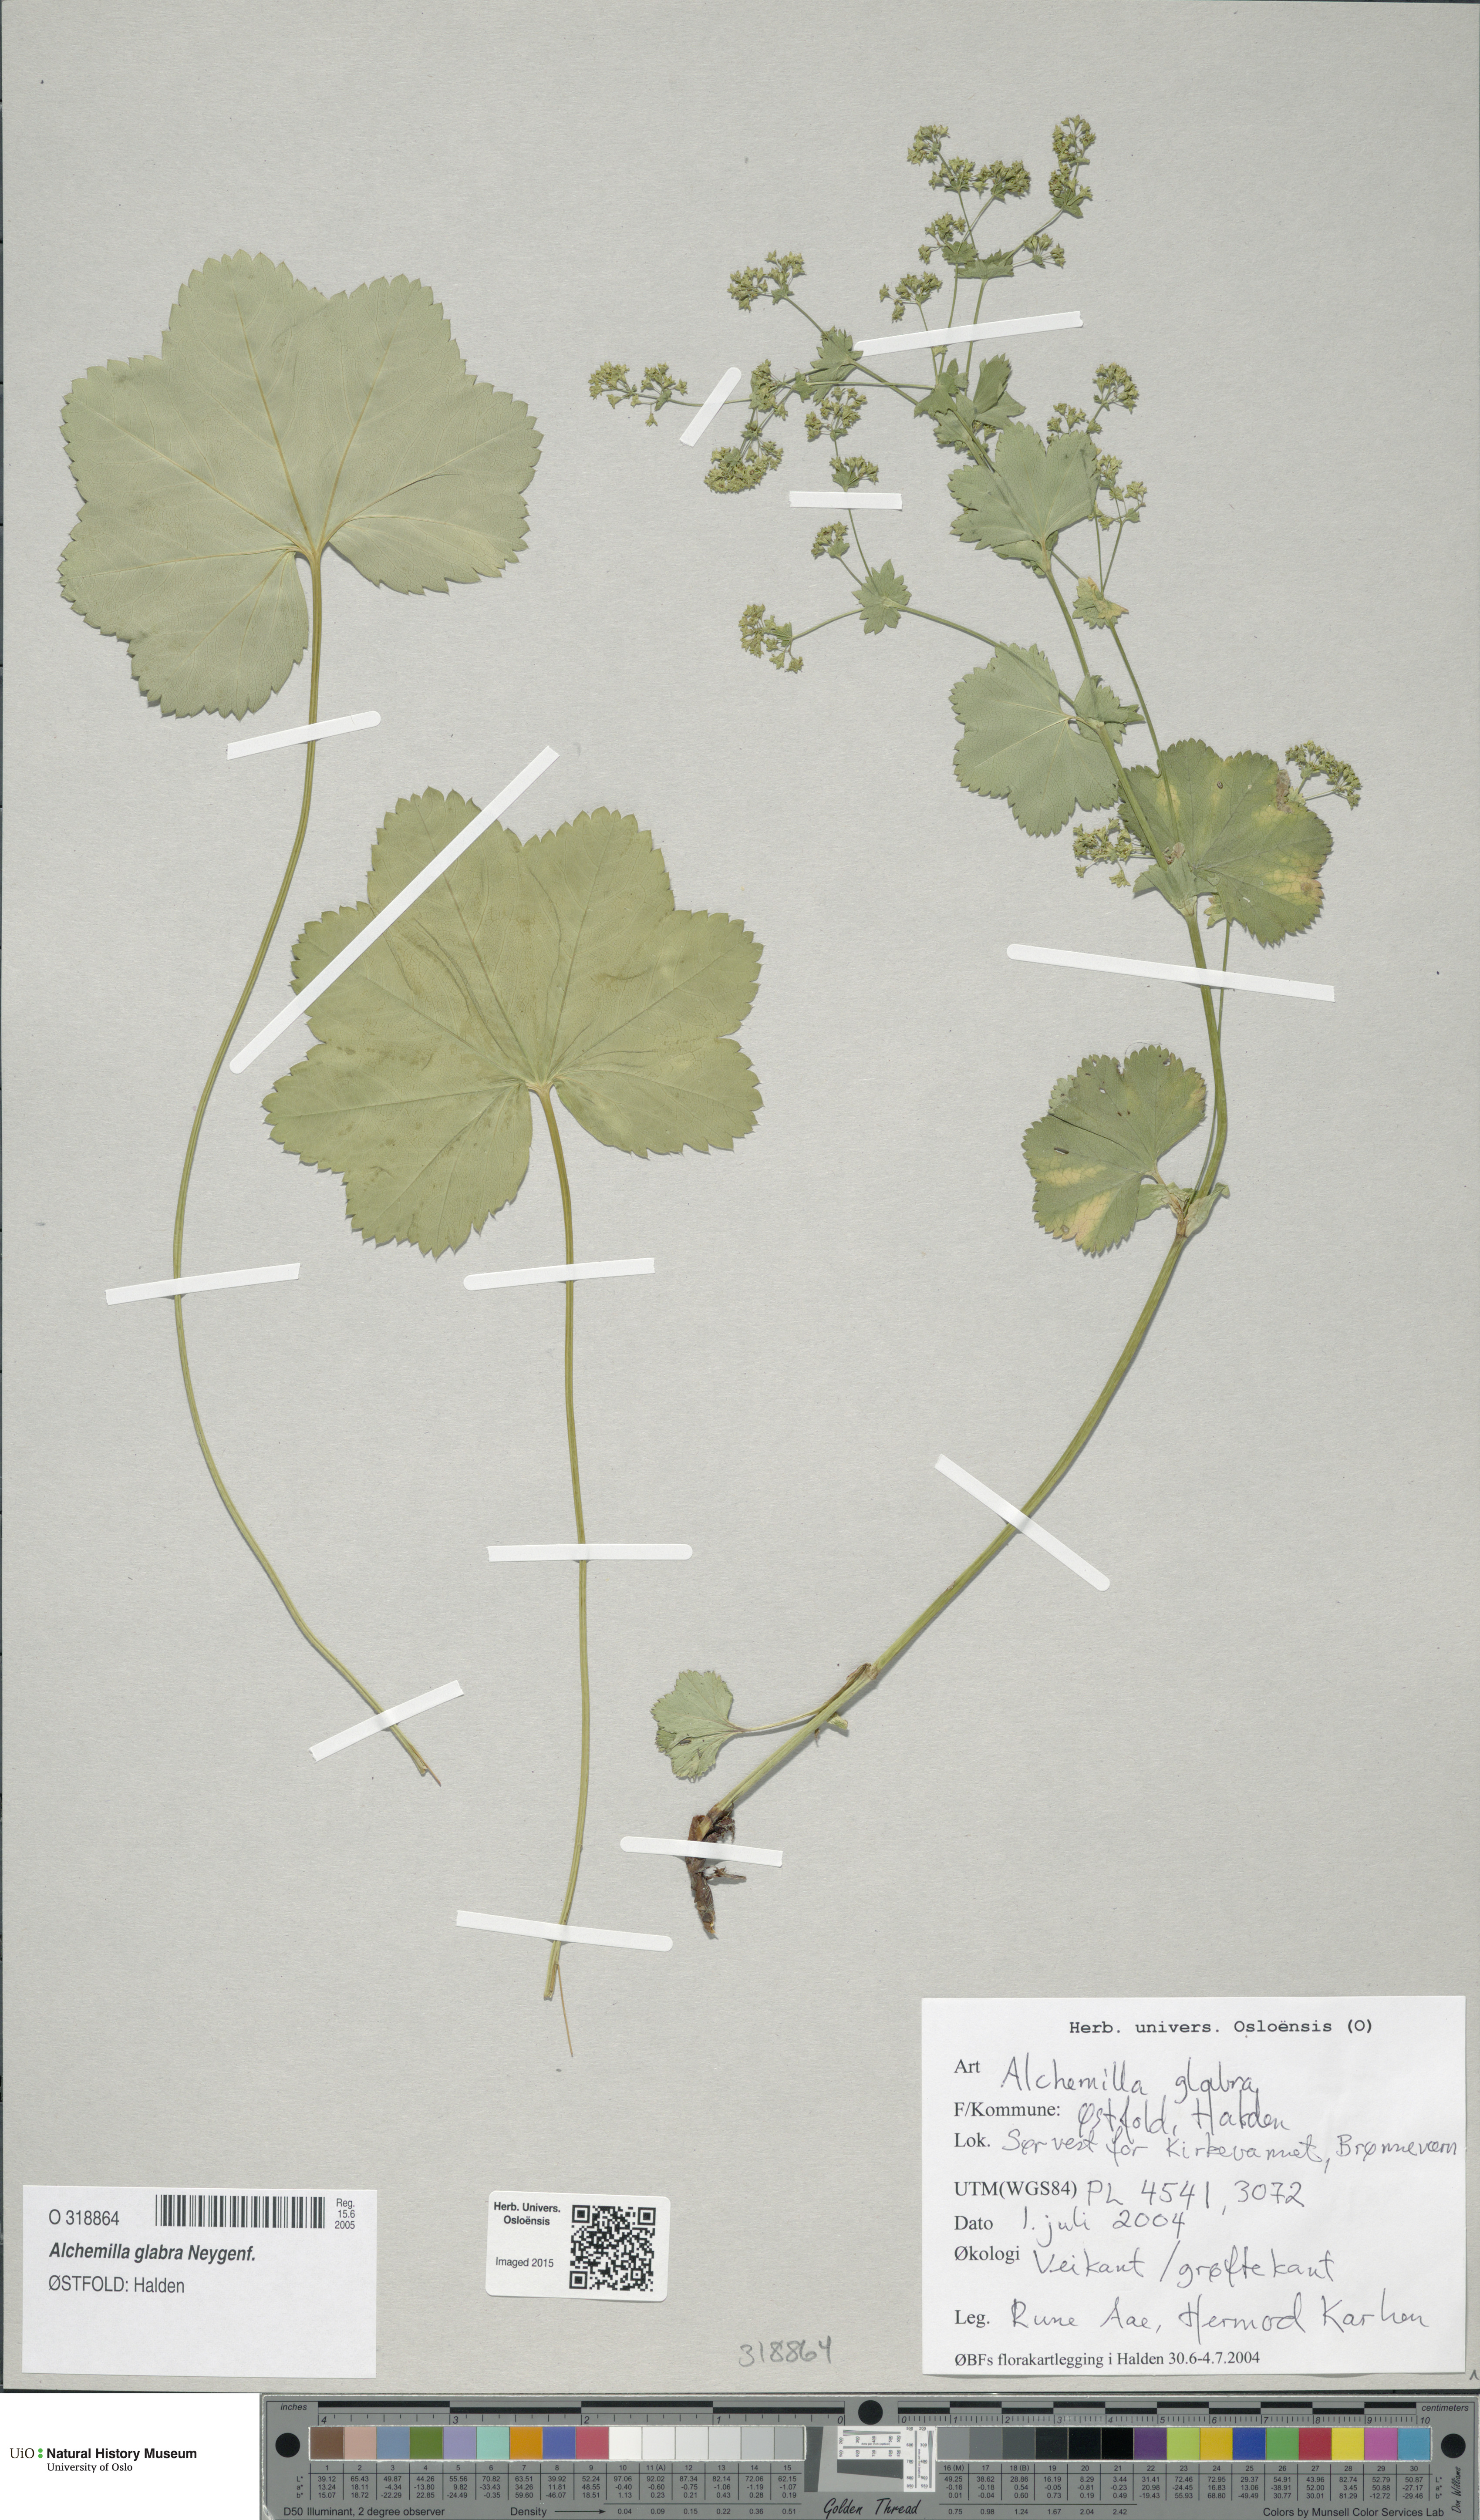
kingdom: Plantae
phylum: Tracheophyta
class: Magnoliopsida
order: Rosales
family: Rosaceae
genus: Alchemilla
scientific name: Alchemilla glabra
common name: Smooth lady's-mantle
